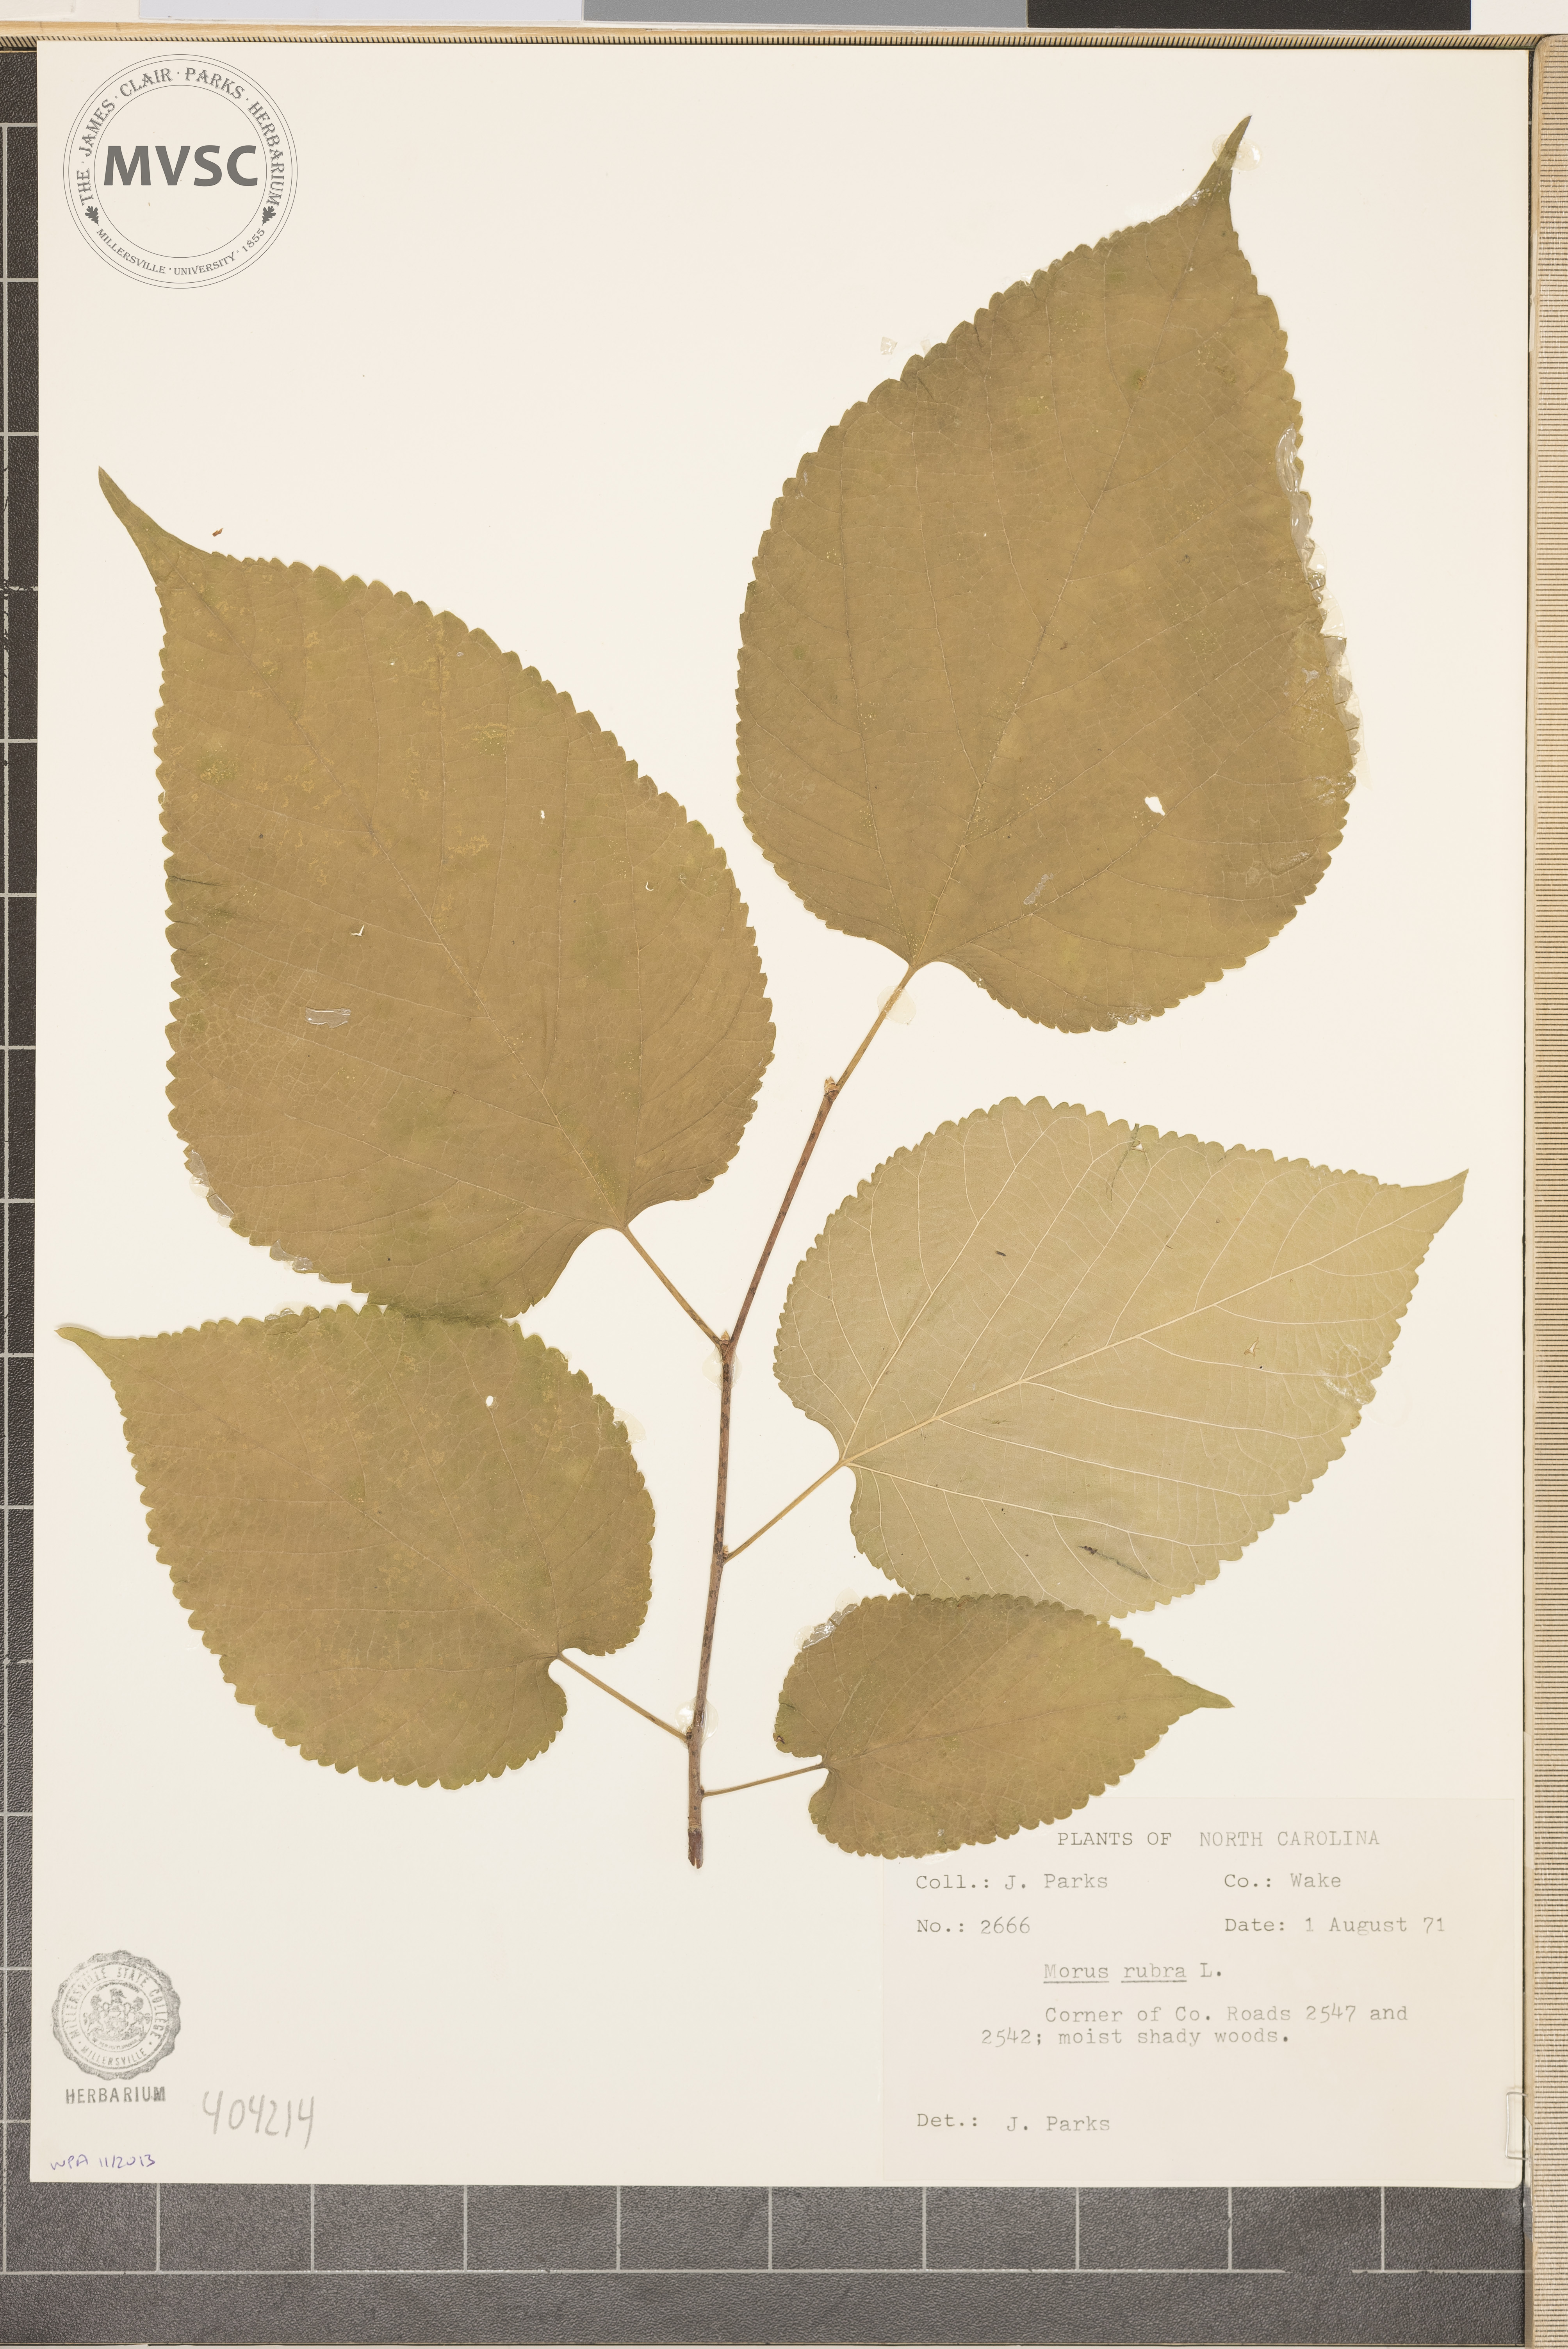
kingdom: Plantae
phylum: Tracheophyta
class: Magnoliopsida
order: Rosales
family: Moraceae
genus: Morus
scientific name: Morus rubra
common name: Red mulberry
